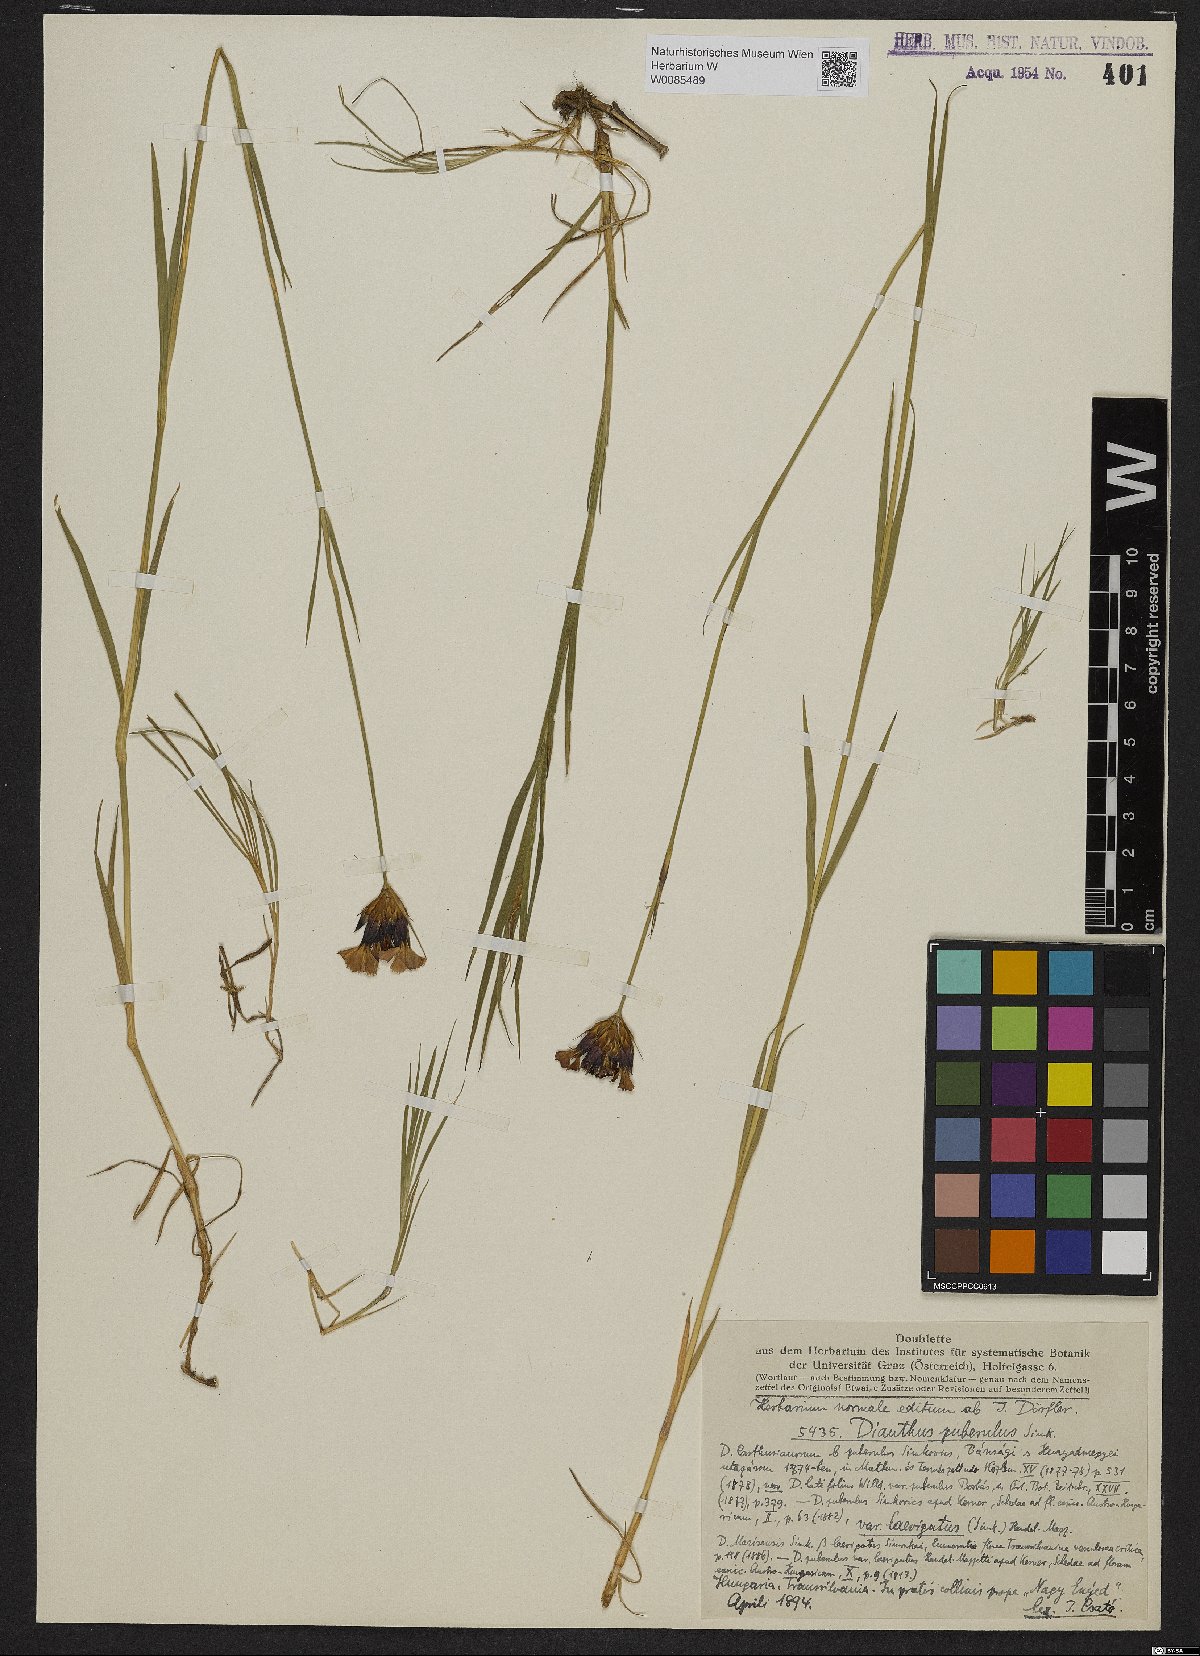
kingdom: Plantae
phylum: Tracheophyta
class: Magnoliopsida
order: Caryophyllales
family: Caryophyllaceae
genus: Dianthus
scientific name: Dianthus carthusianorum
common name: Carthusian pink
